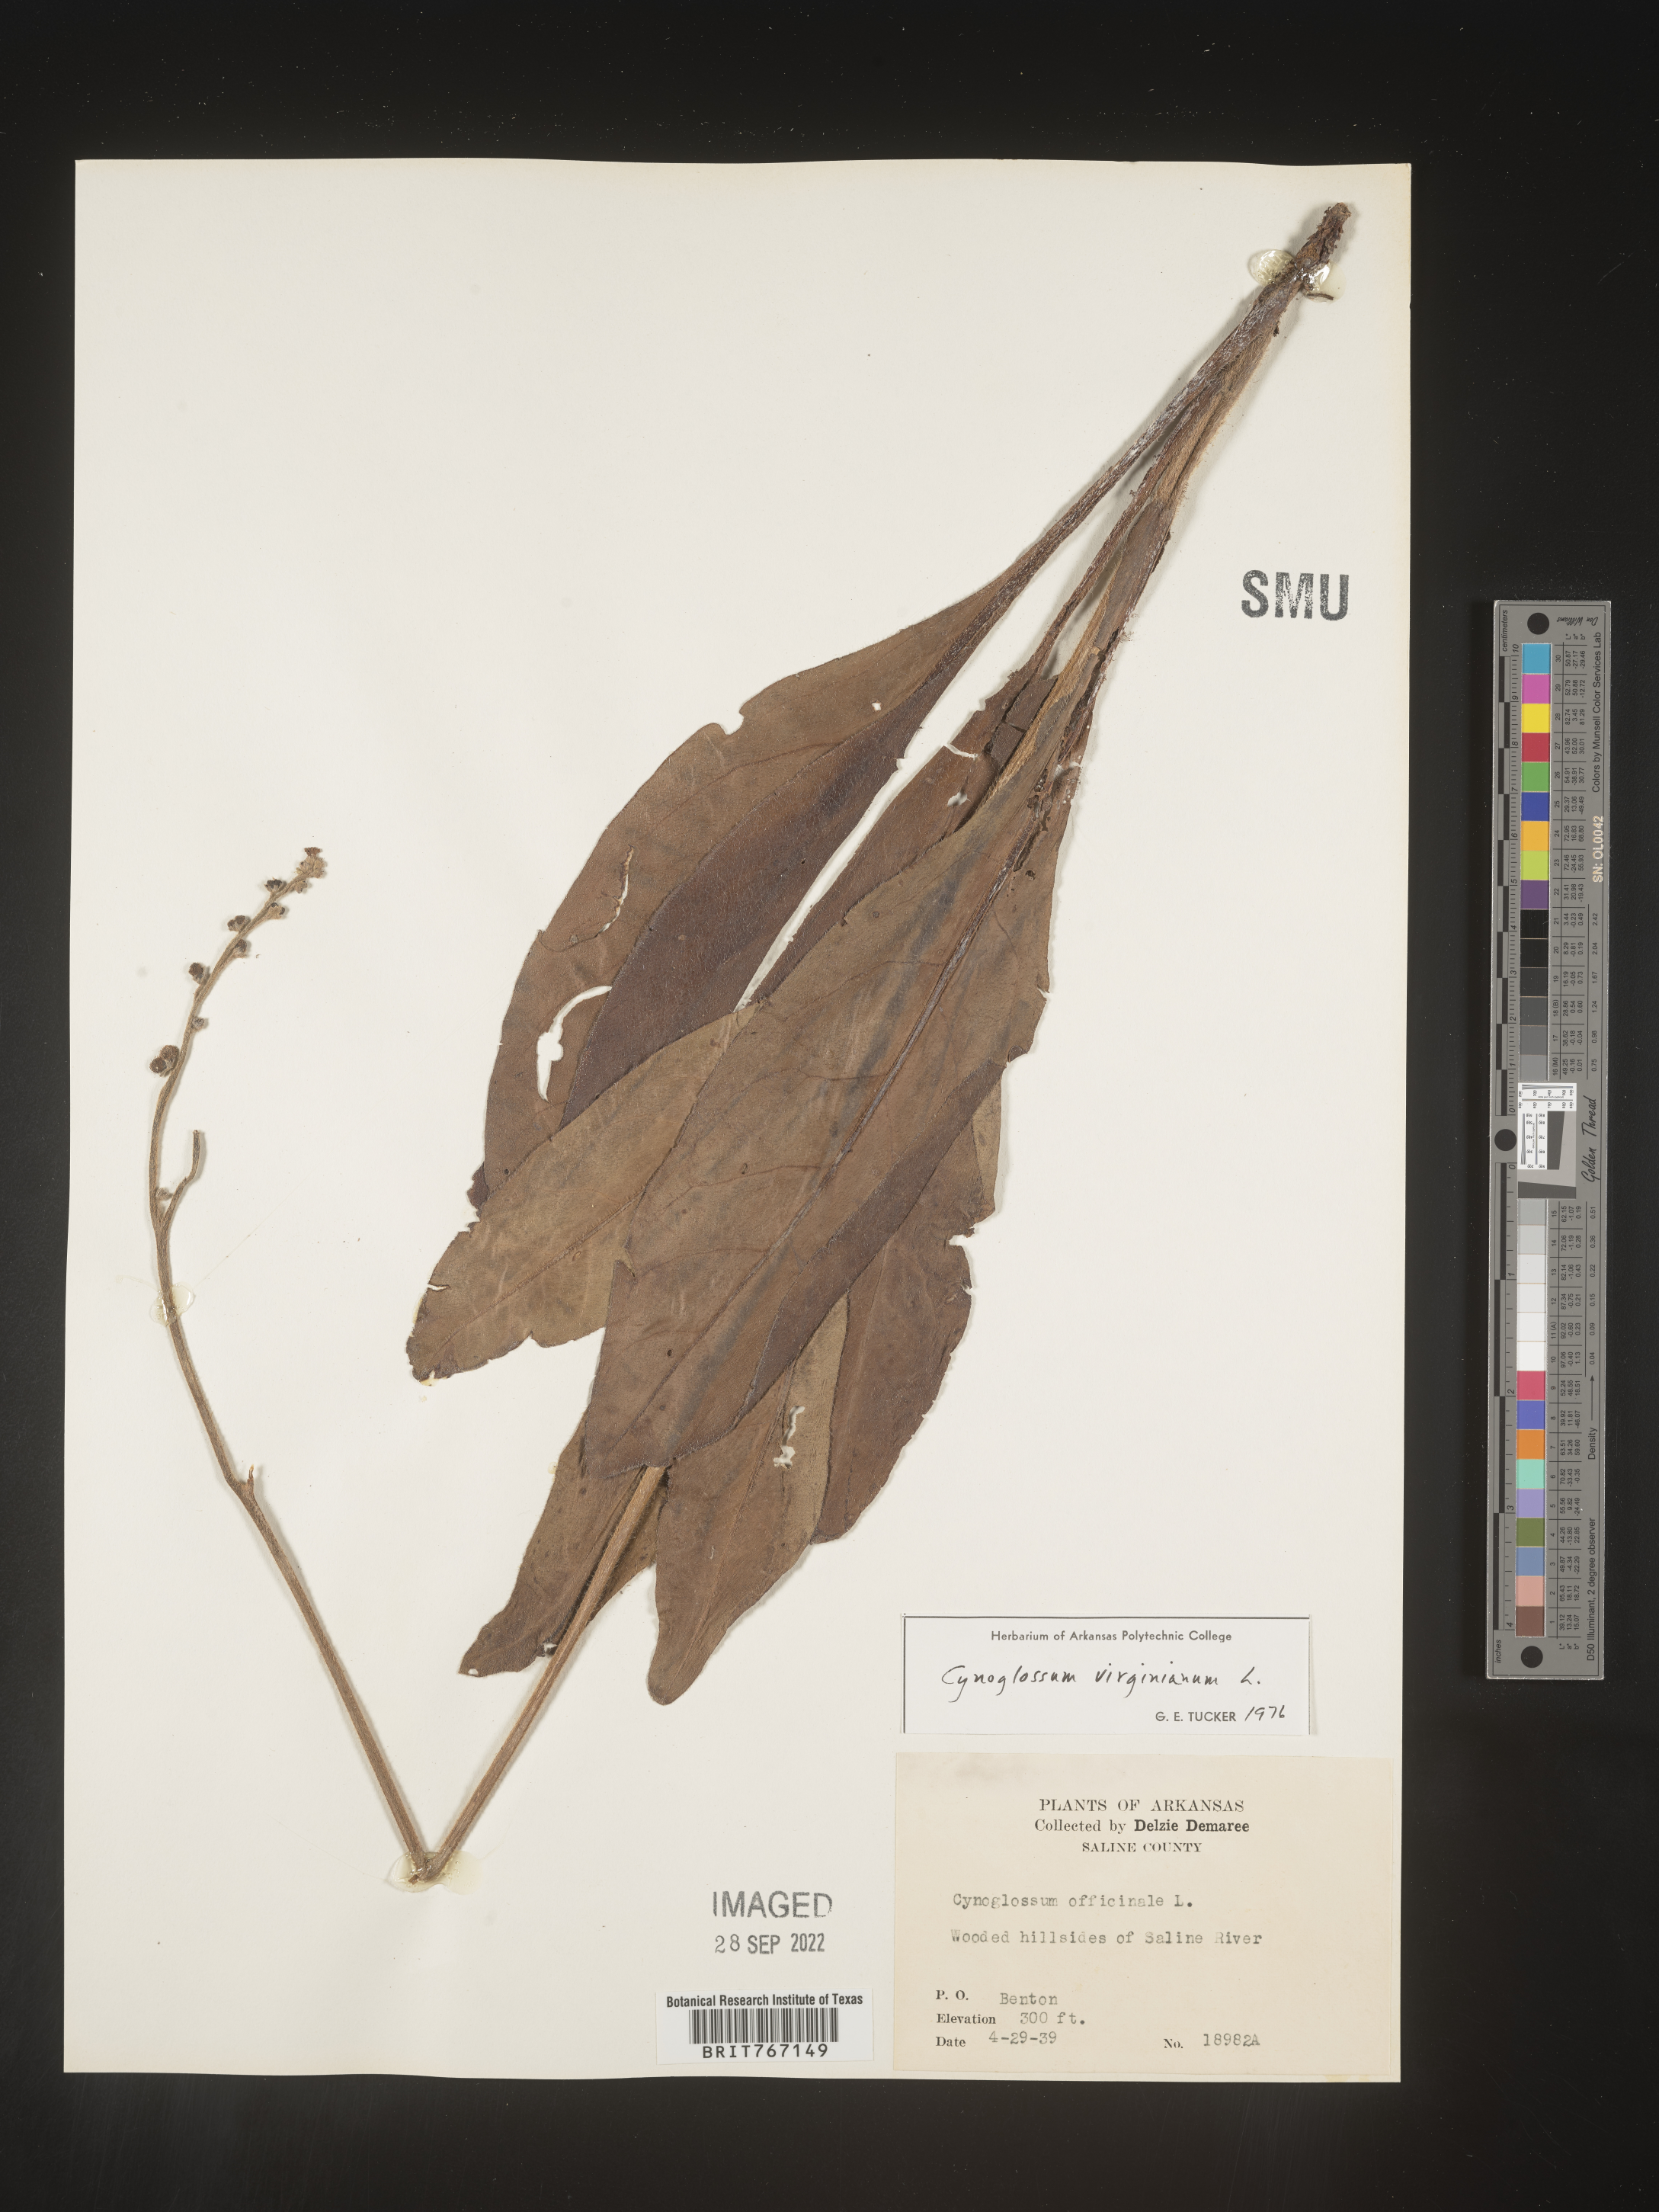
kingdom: Plantae
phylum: Tracheophyta
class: Magnoliopsida
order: Boraginales
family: Boraginaceae
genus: Andersonglossum
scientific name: Andersonglossum virginianum
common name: Wild comfrey
